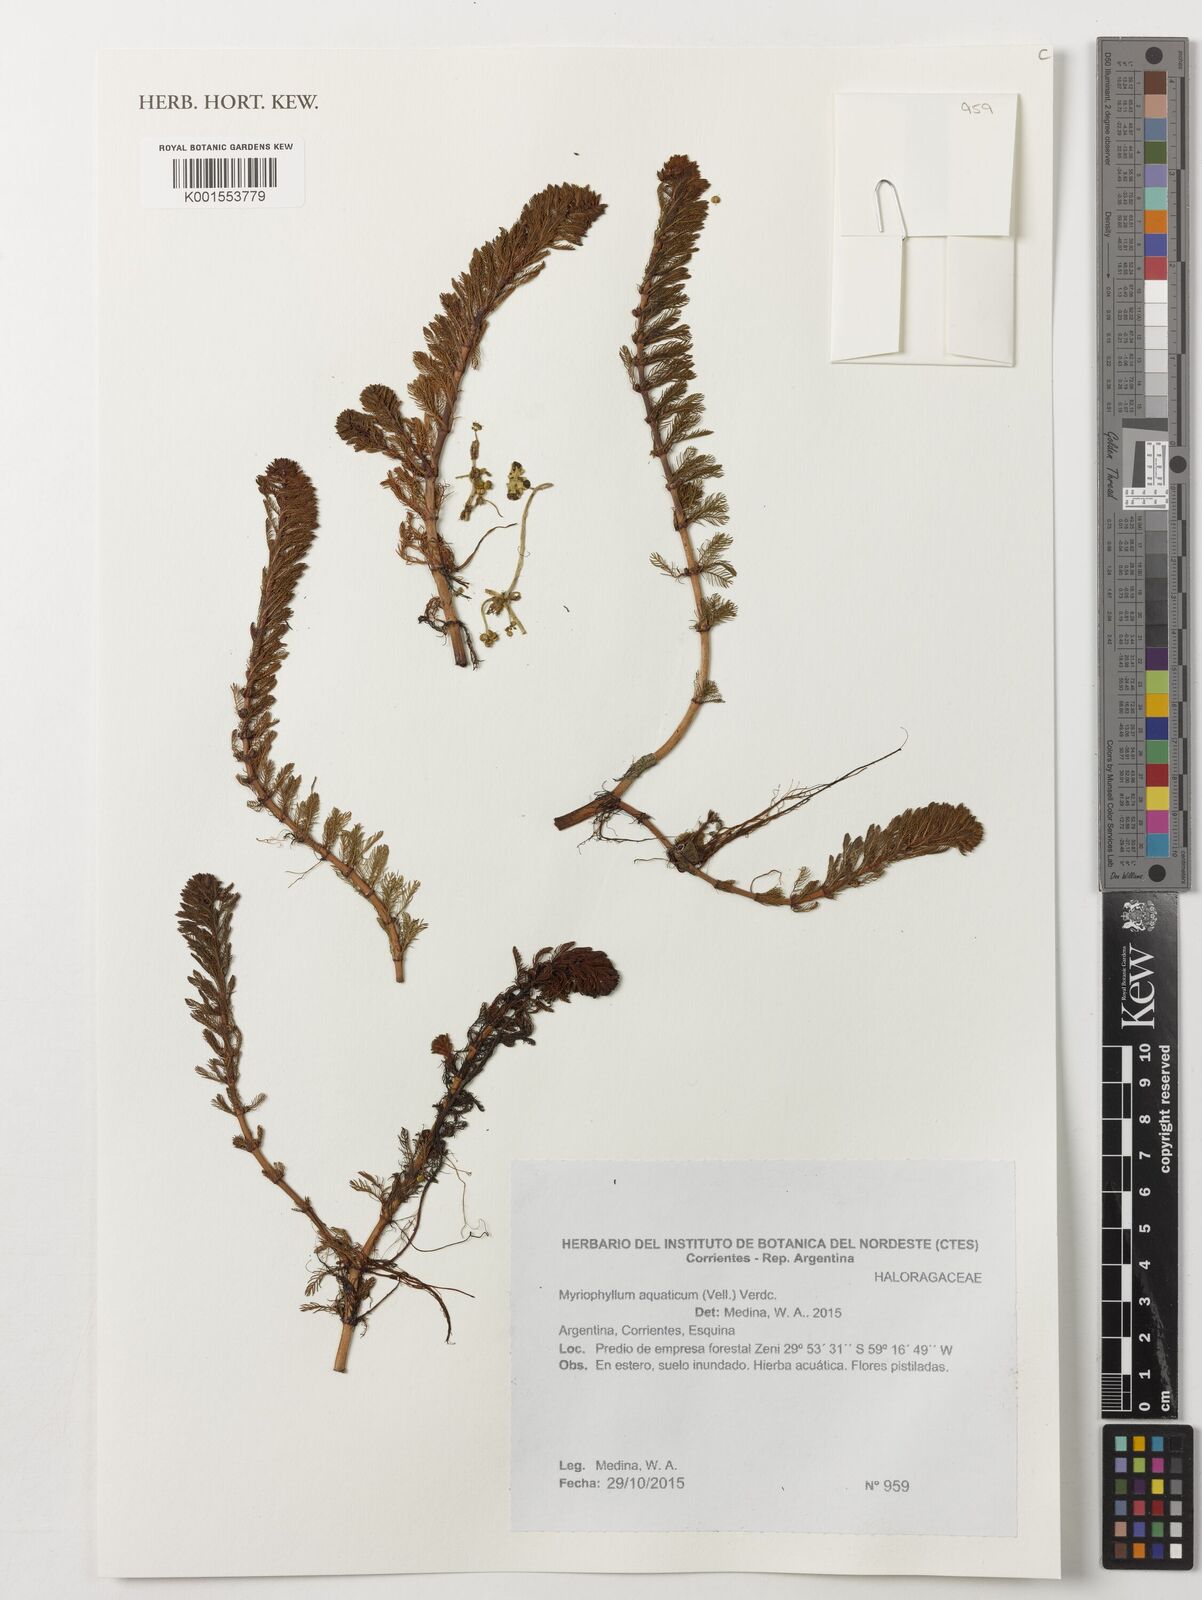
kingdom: Plantae
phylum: Tracheophyta
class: Magnoliopsida
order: Saxifragales
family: Haloragaceae
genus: Myriophyllum
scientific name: Myriophyllum aquaticum
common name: Parrot's feather
